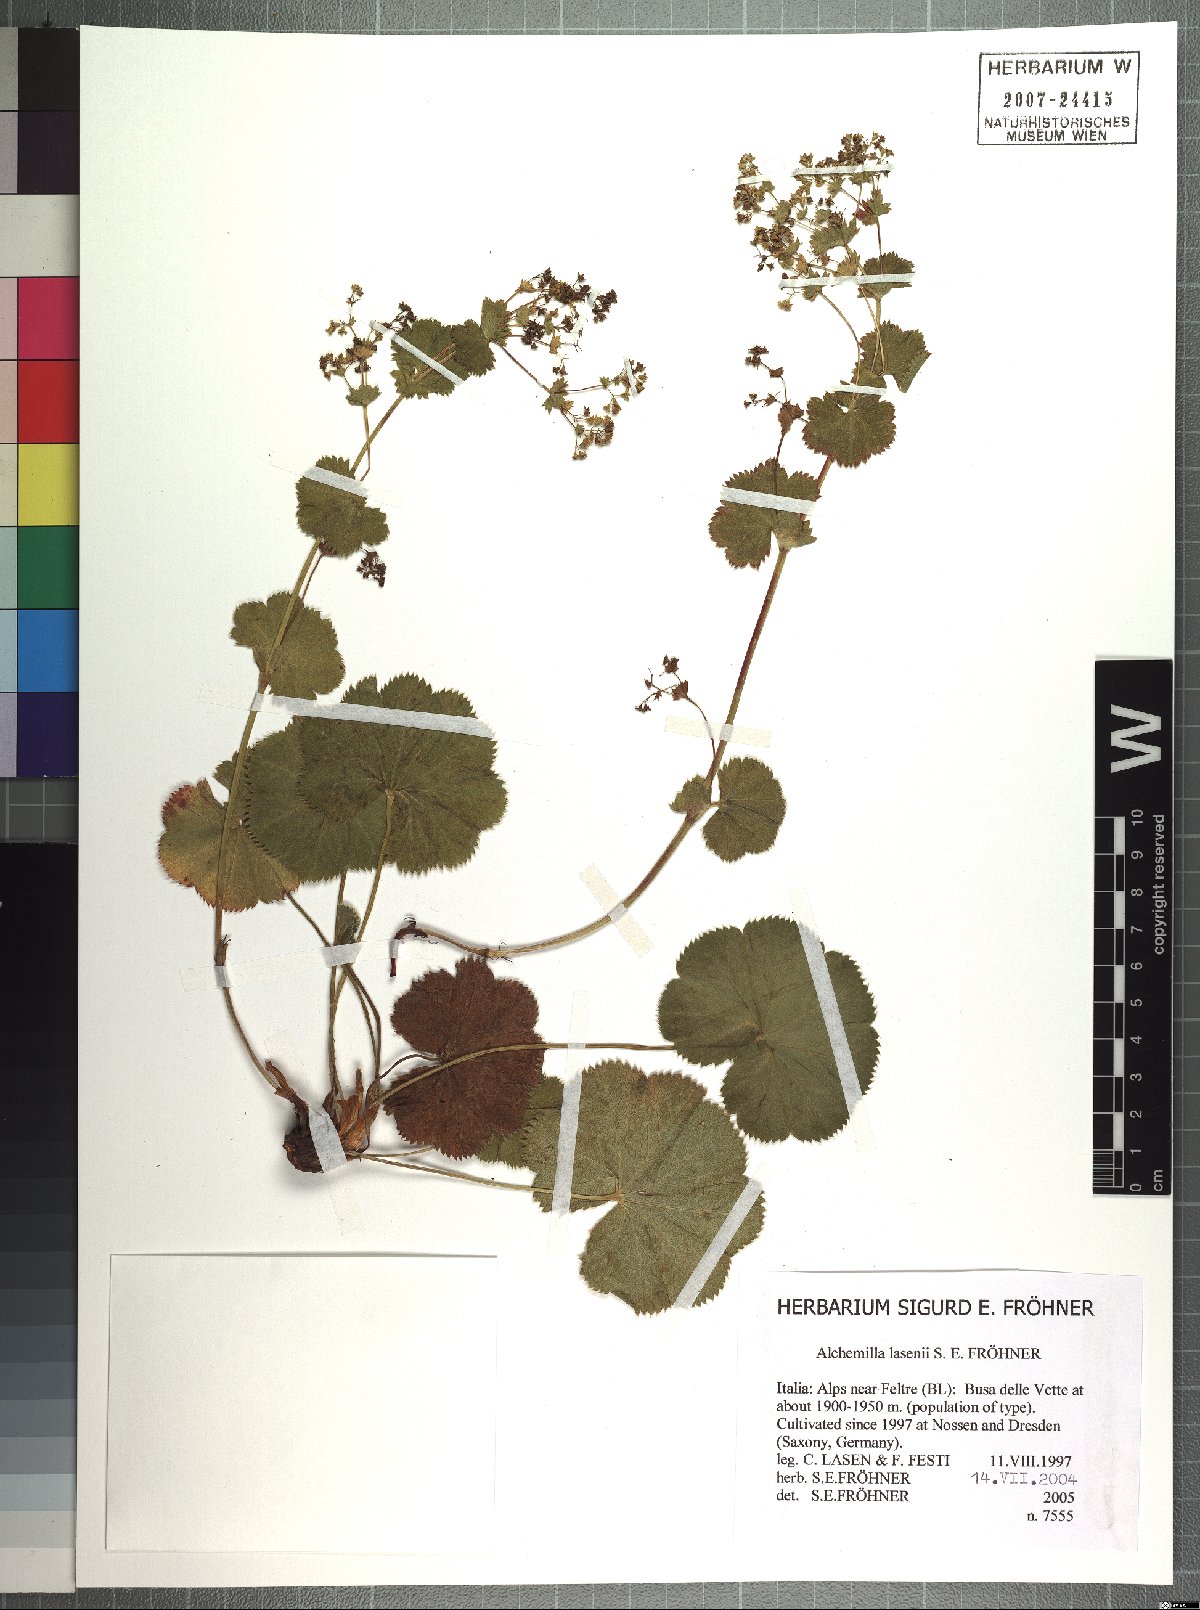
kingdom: Plantae
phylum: Tracheophyta
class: Magnoliopsida
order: Rosales
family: Rosaceae
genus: Alchemilla
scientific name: Alchemilla lasenii
